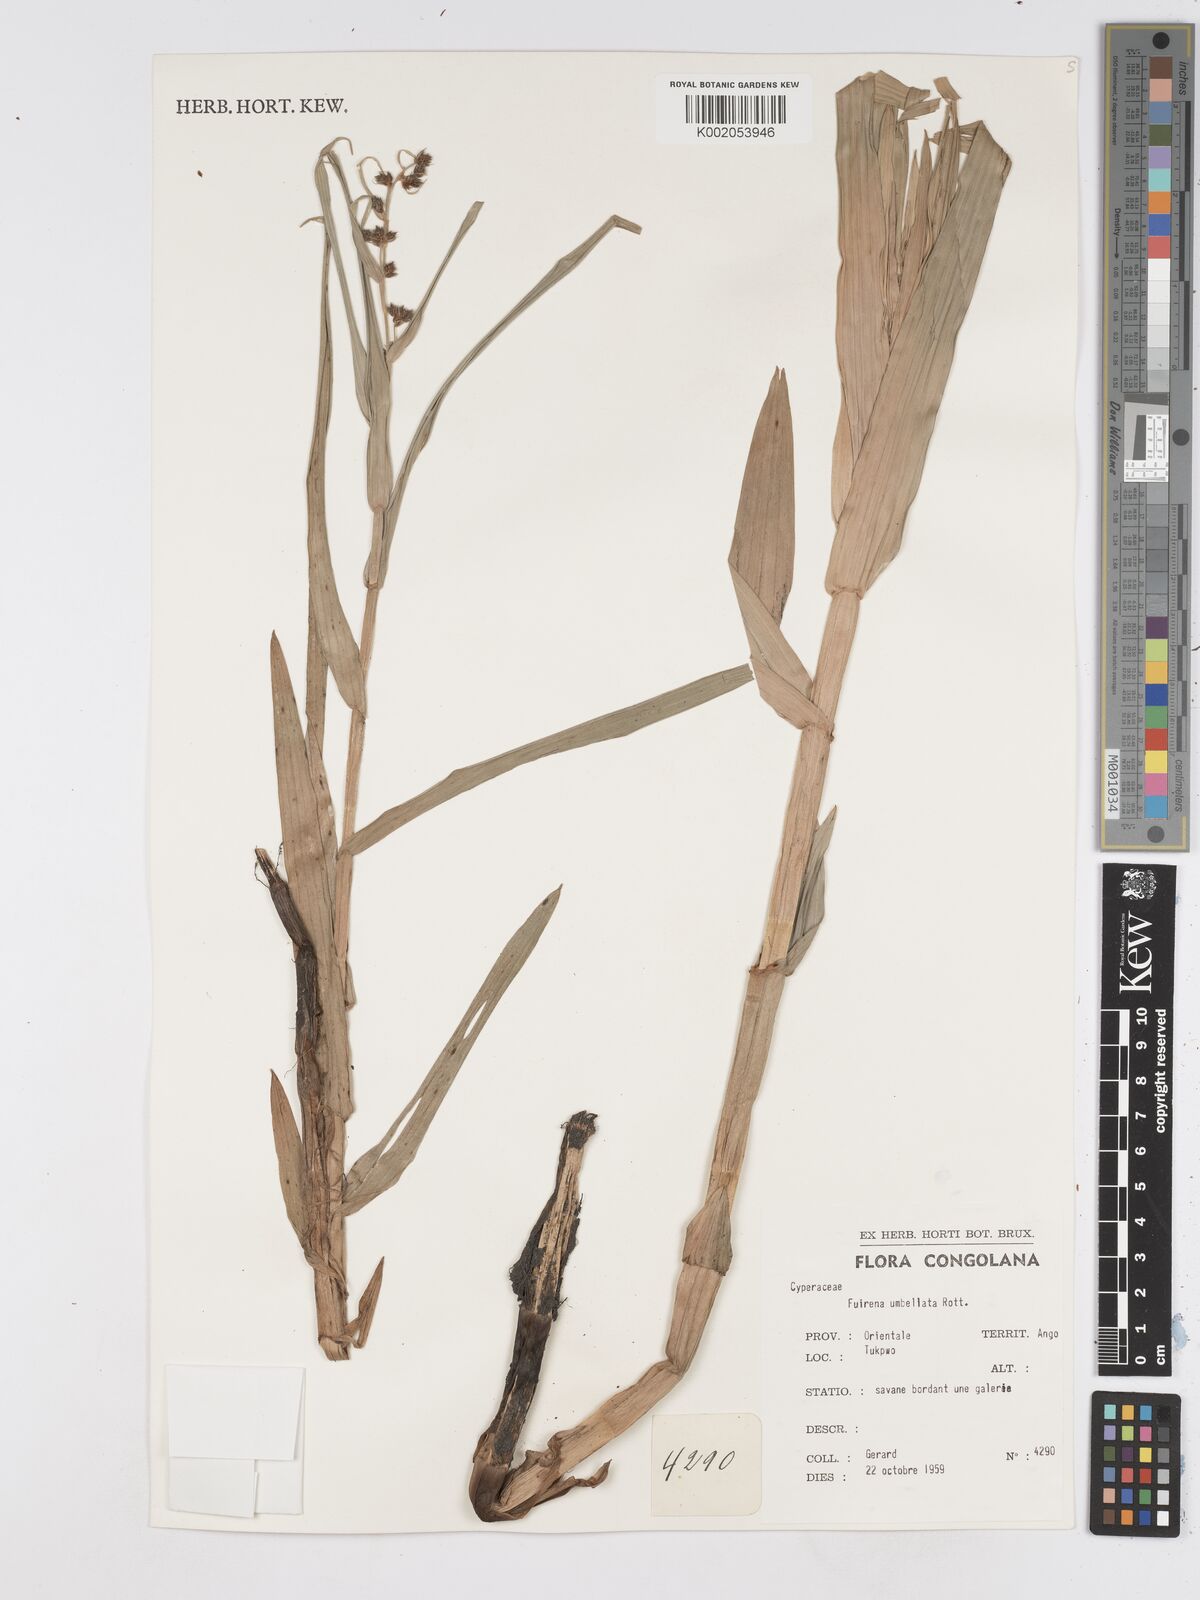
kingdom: Plantae
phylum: Tracheophyta
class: Liliopsida
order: Poales
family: Cyperaceae
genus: Fuirena
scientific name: Fuirena umbellata
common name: Yefen
